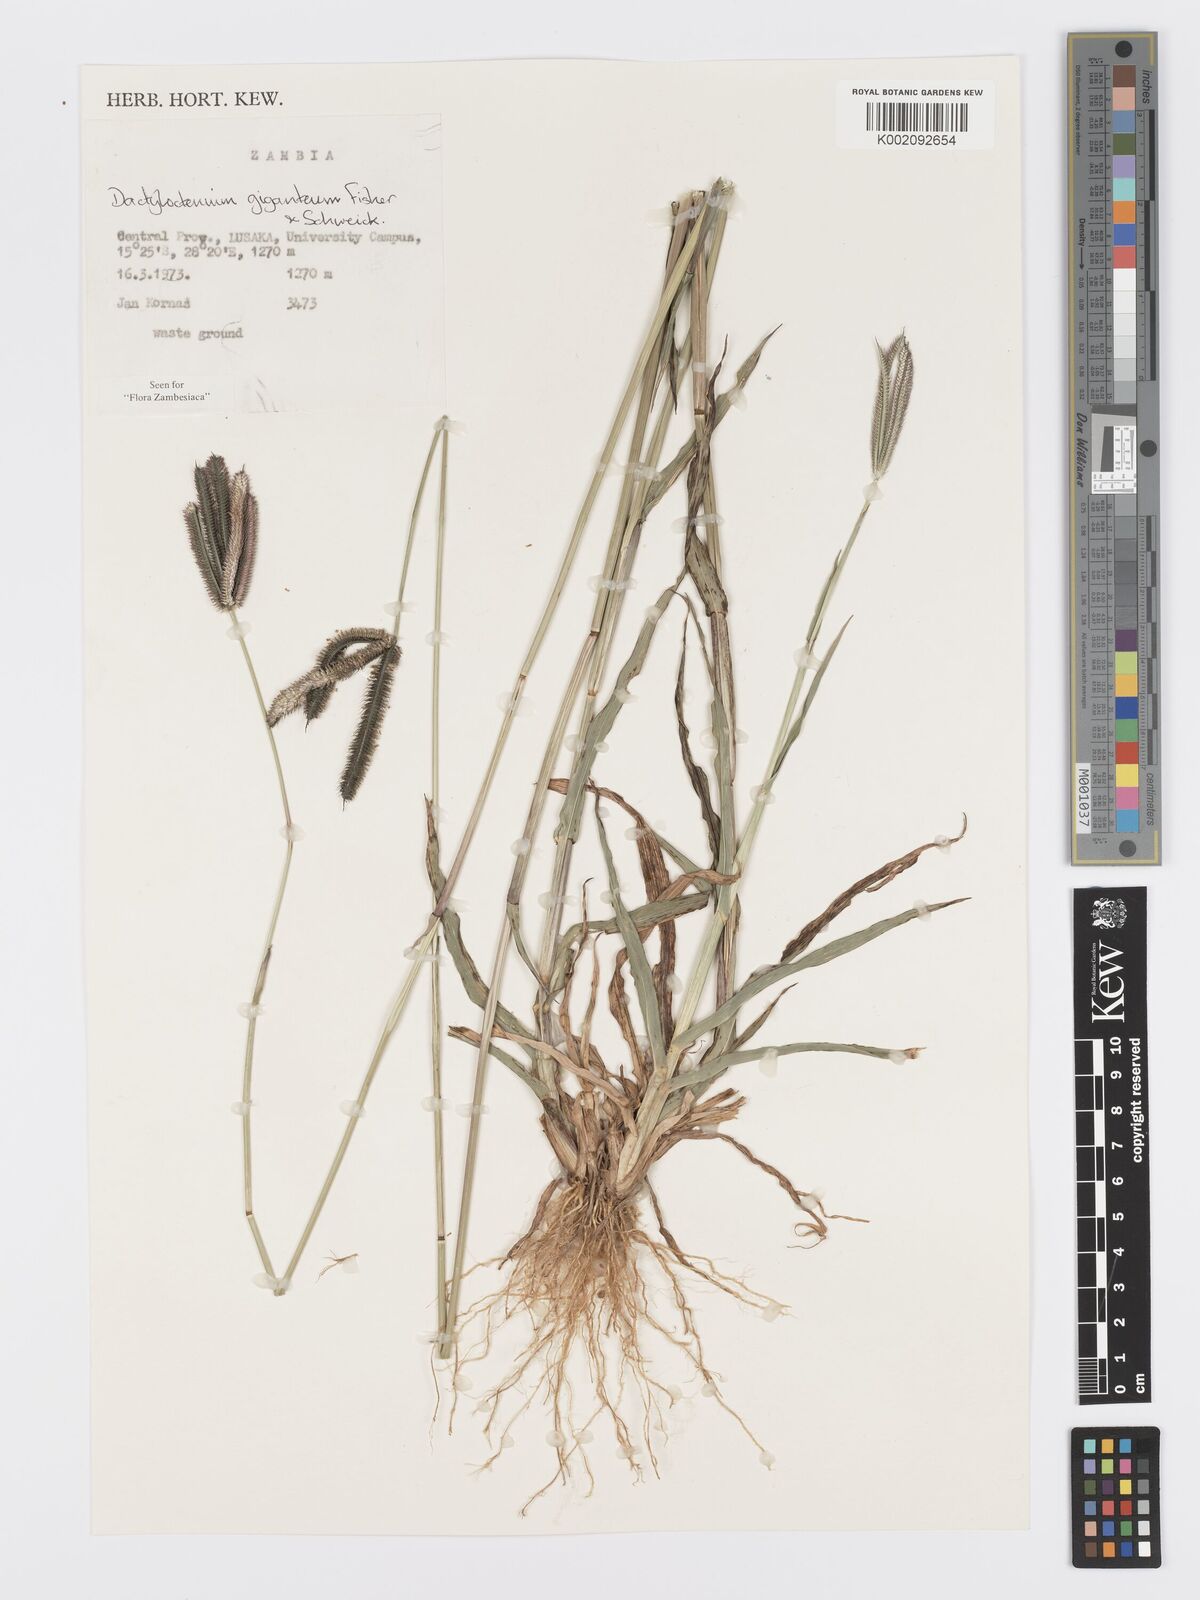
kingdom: Plantae
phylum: Tracheophyta
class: Liliopsida
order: Poales
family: Poaceae
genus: Dactyloctenium
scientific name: Dactyloctenium giganteum
